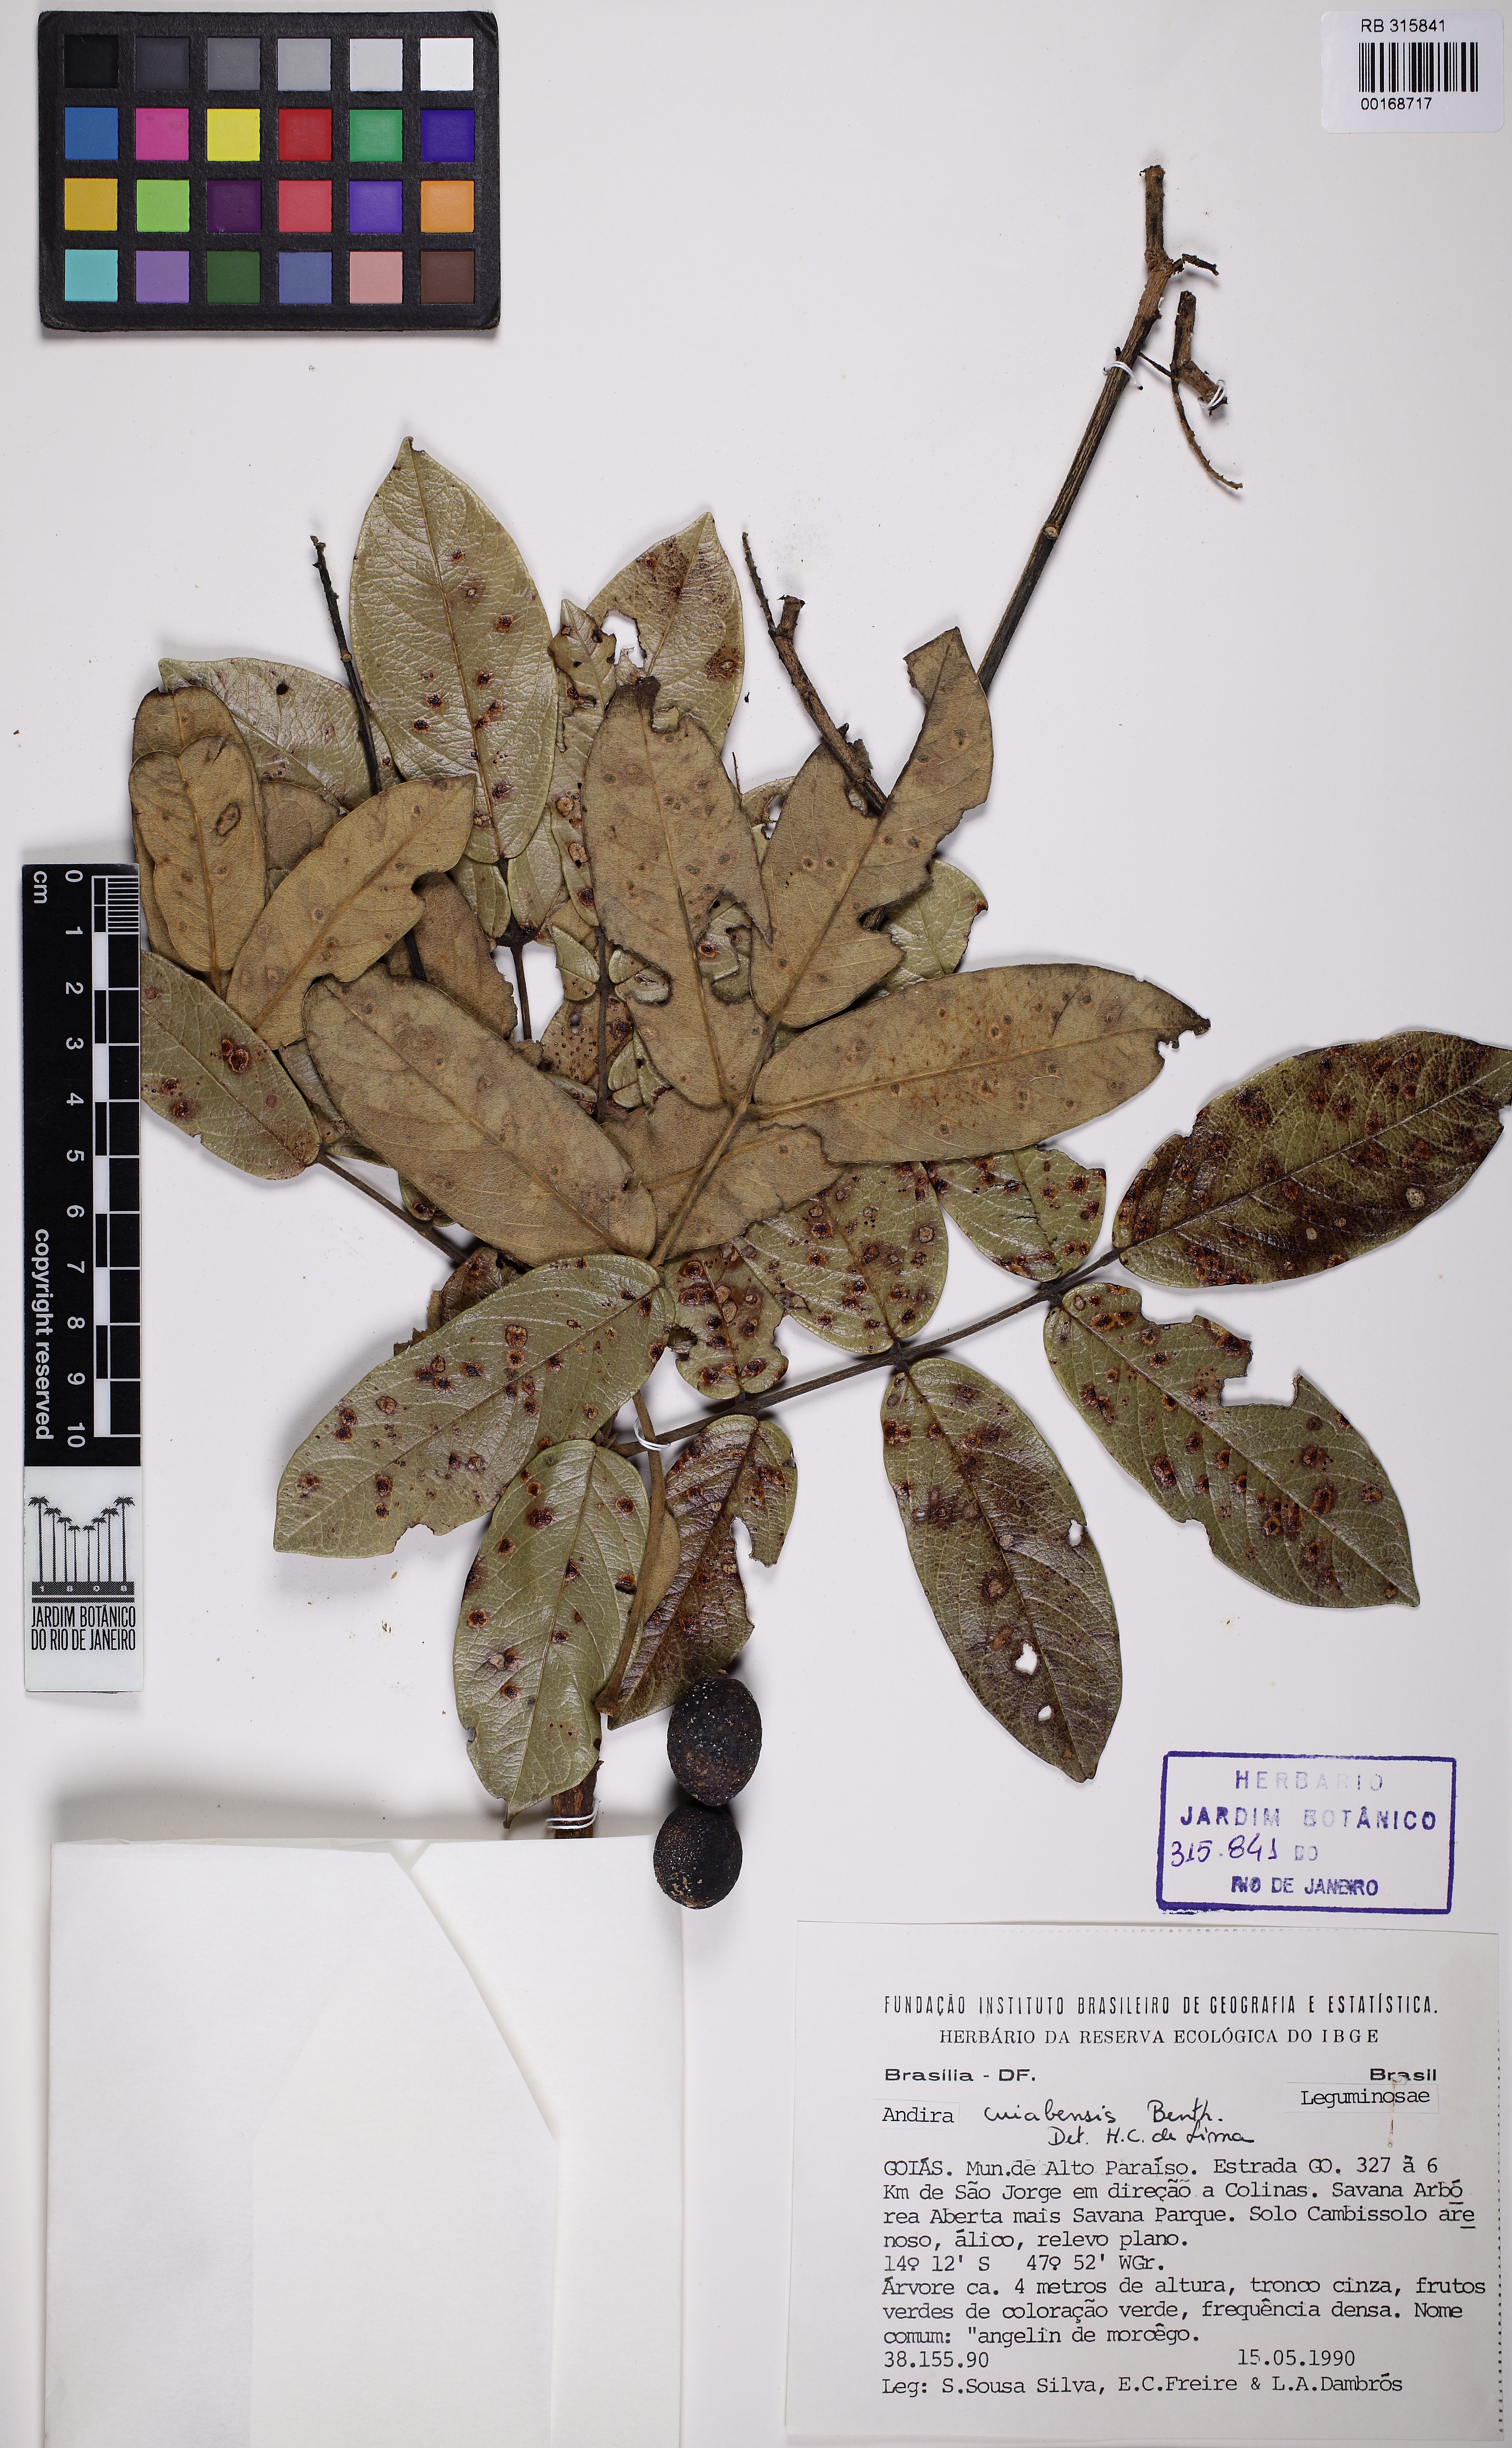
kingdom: Plantae
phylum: Tracheophyta
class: Magnoliopsida
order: Fabales
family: Fabaceae
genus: Andira
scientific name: Andira cujabensis
